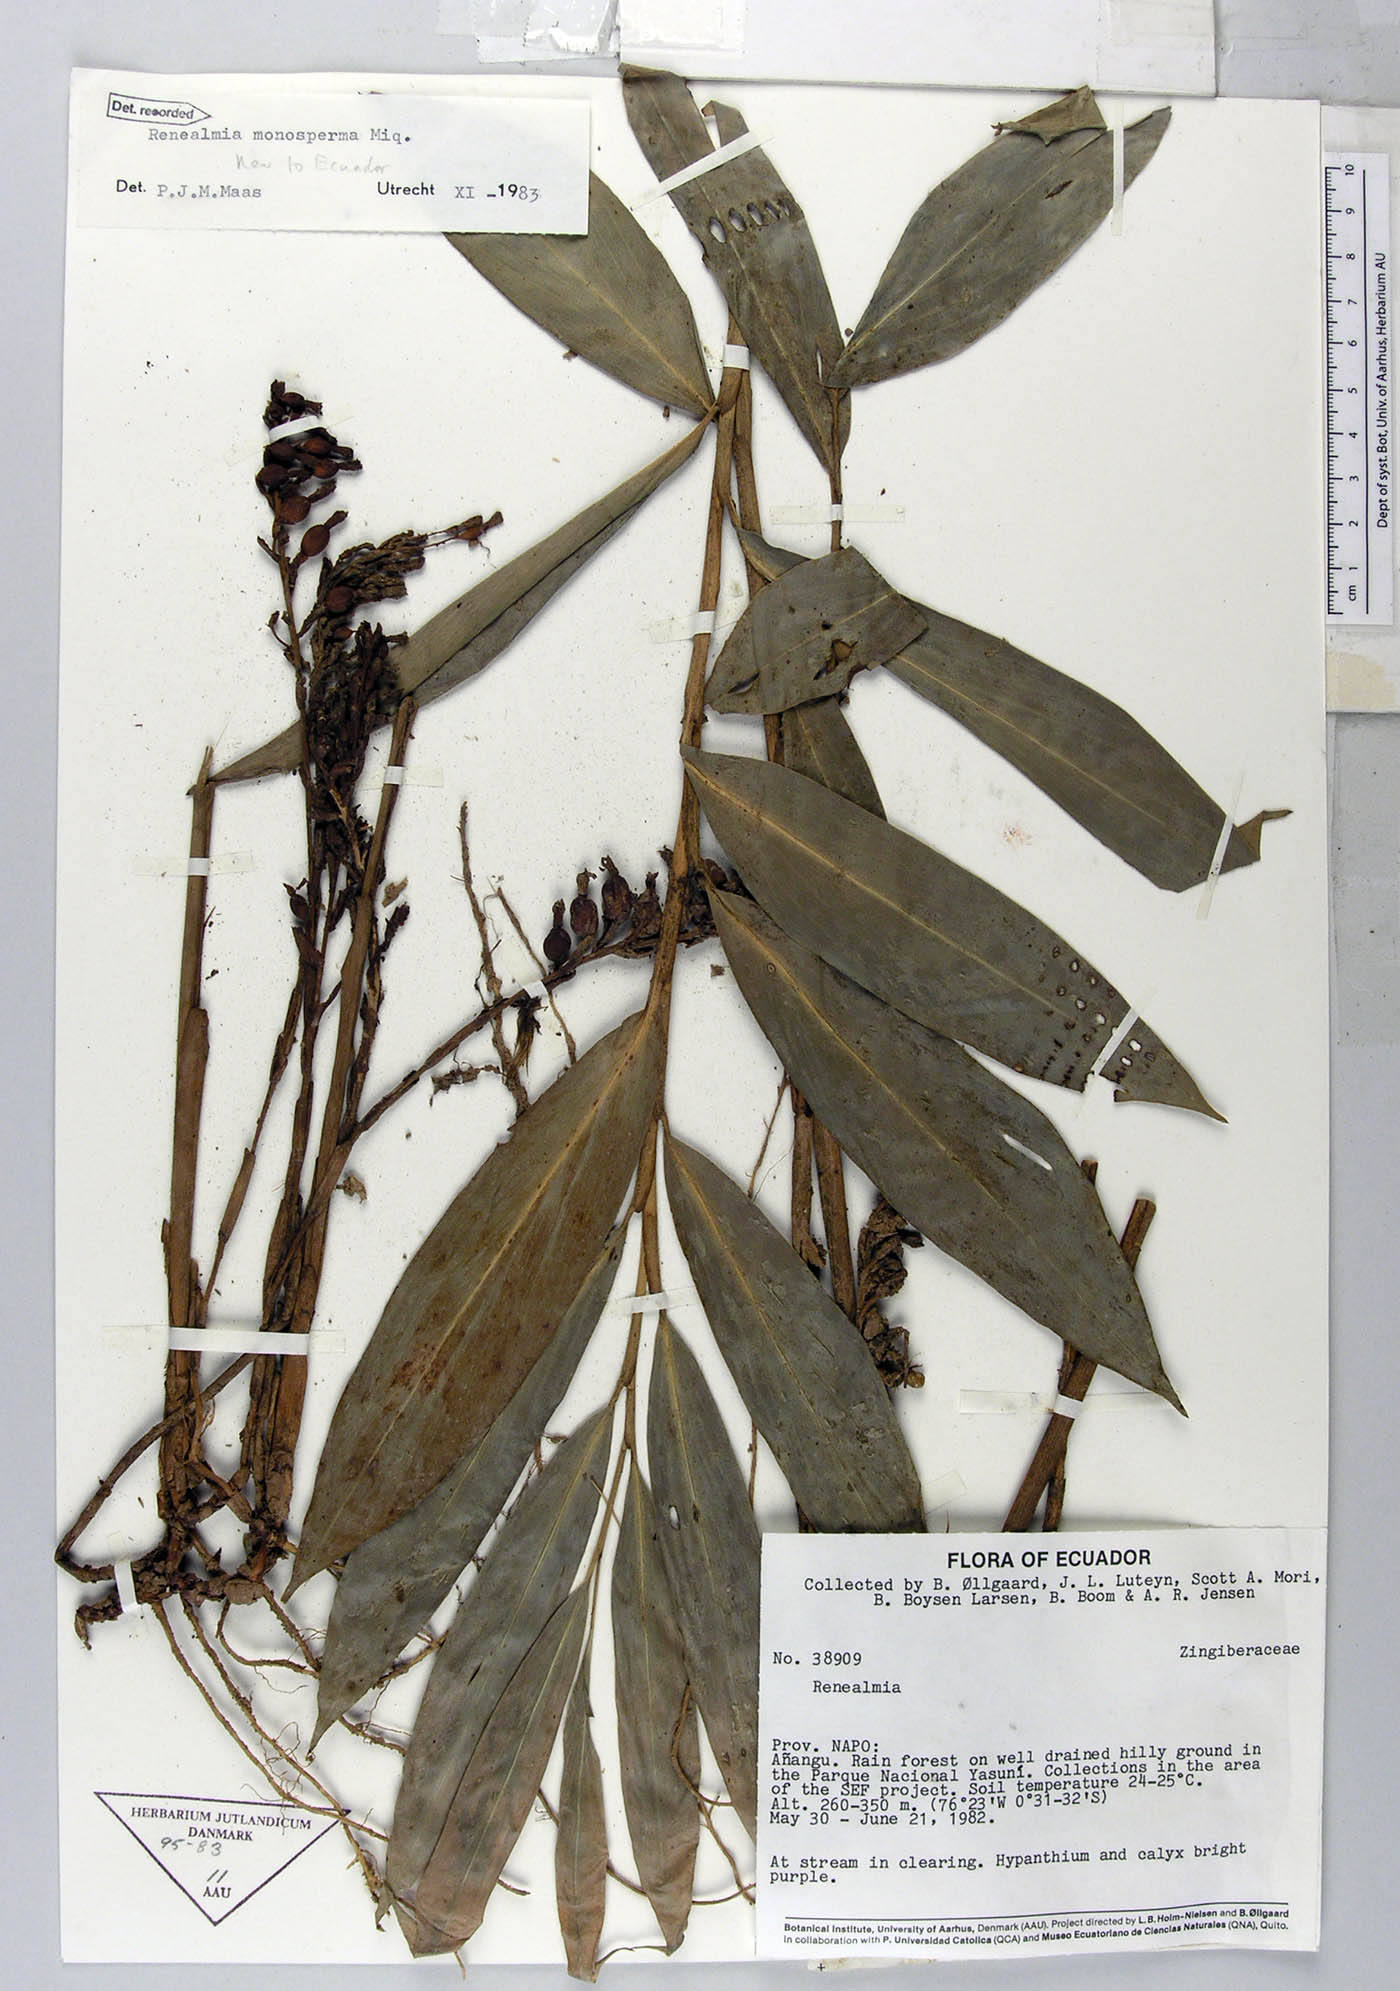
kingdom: Plantae
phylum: Tracheophyta
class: Liliopsida
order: Zingiberales
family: Zingiberaceae
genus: Renealmia
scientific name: Renealmia monosperma
